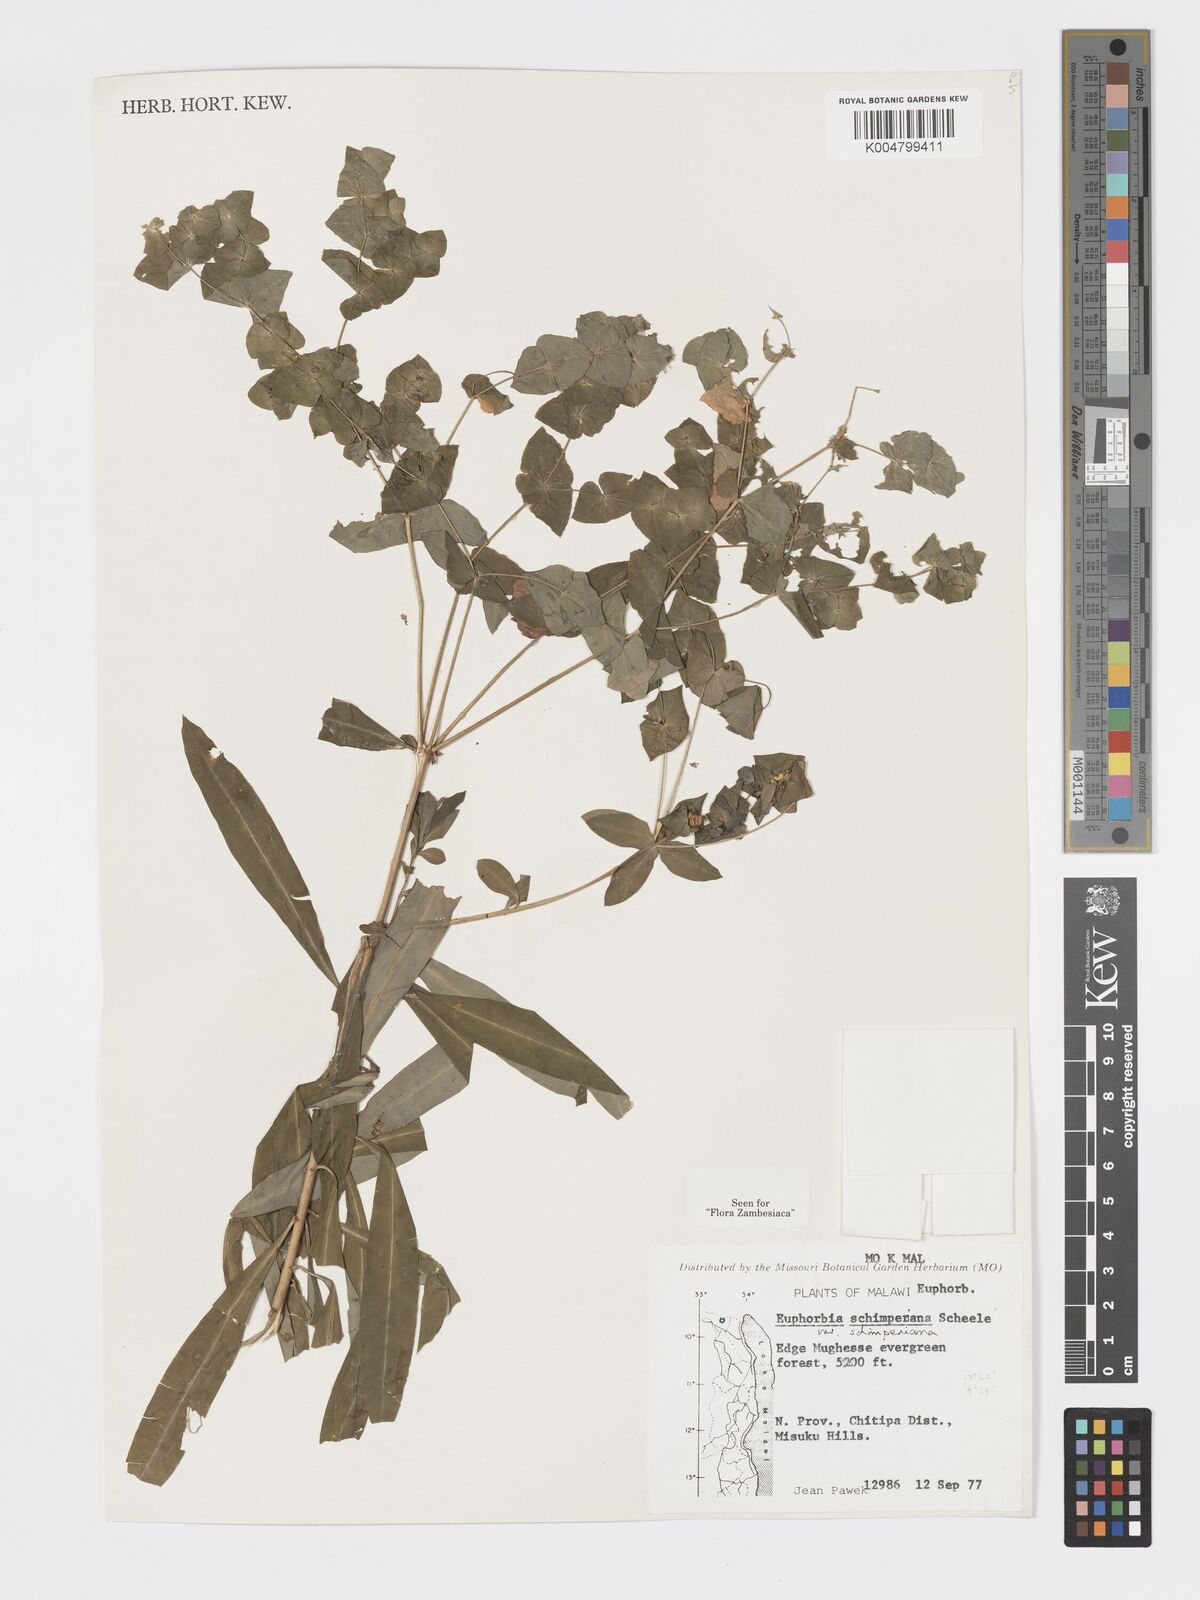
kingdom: Plantae
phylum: Tracheophyta
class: Magnoliopsida
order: Malpighiales
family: Euphorbiaceae
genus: Euphorbia
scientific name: Euphorbia schimperiana
